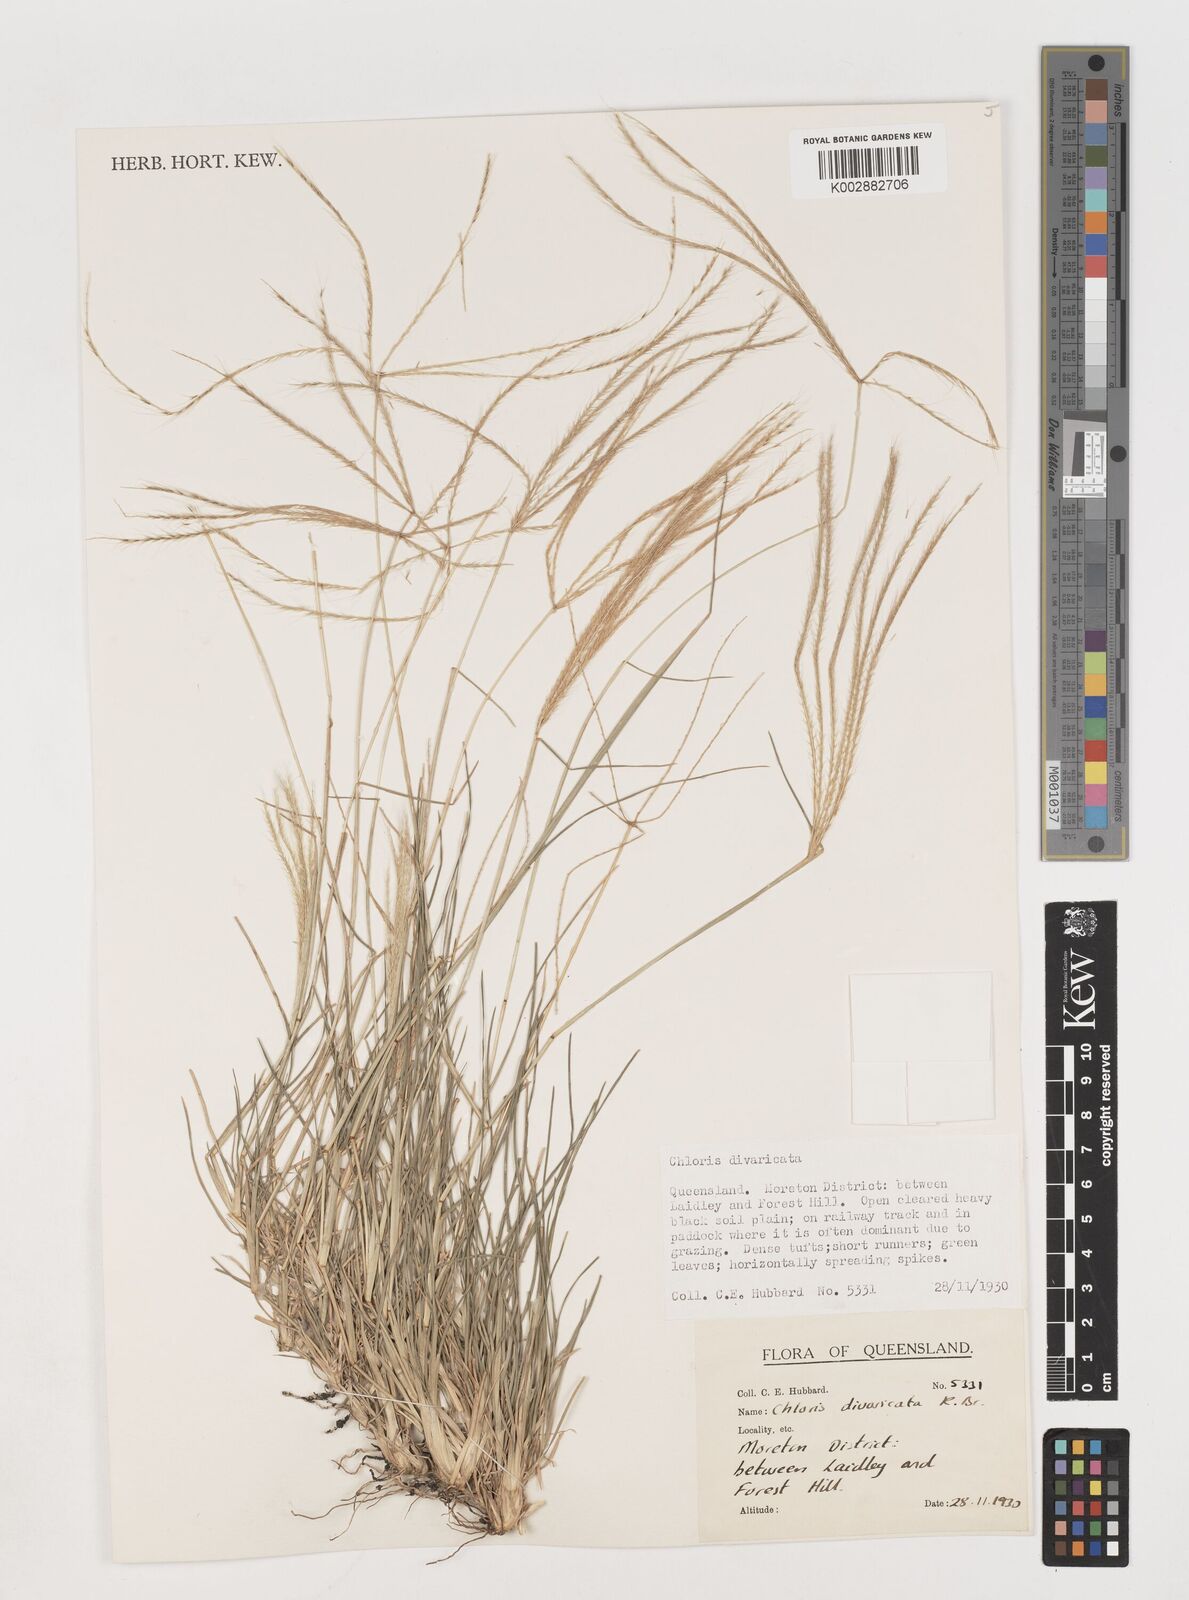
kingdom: Plantae
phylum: Tracheophyta
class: Liliopsida
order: Poales
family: Poaceae
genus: Chloris
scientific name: Chloris divaricata
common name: Spreading windmill grass
